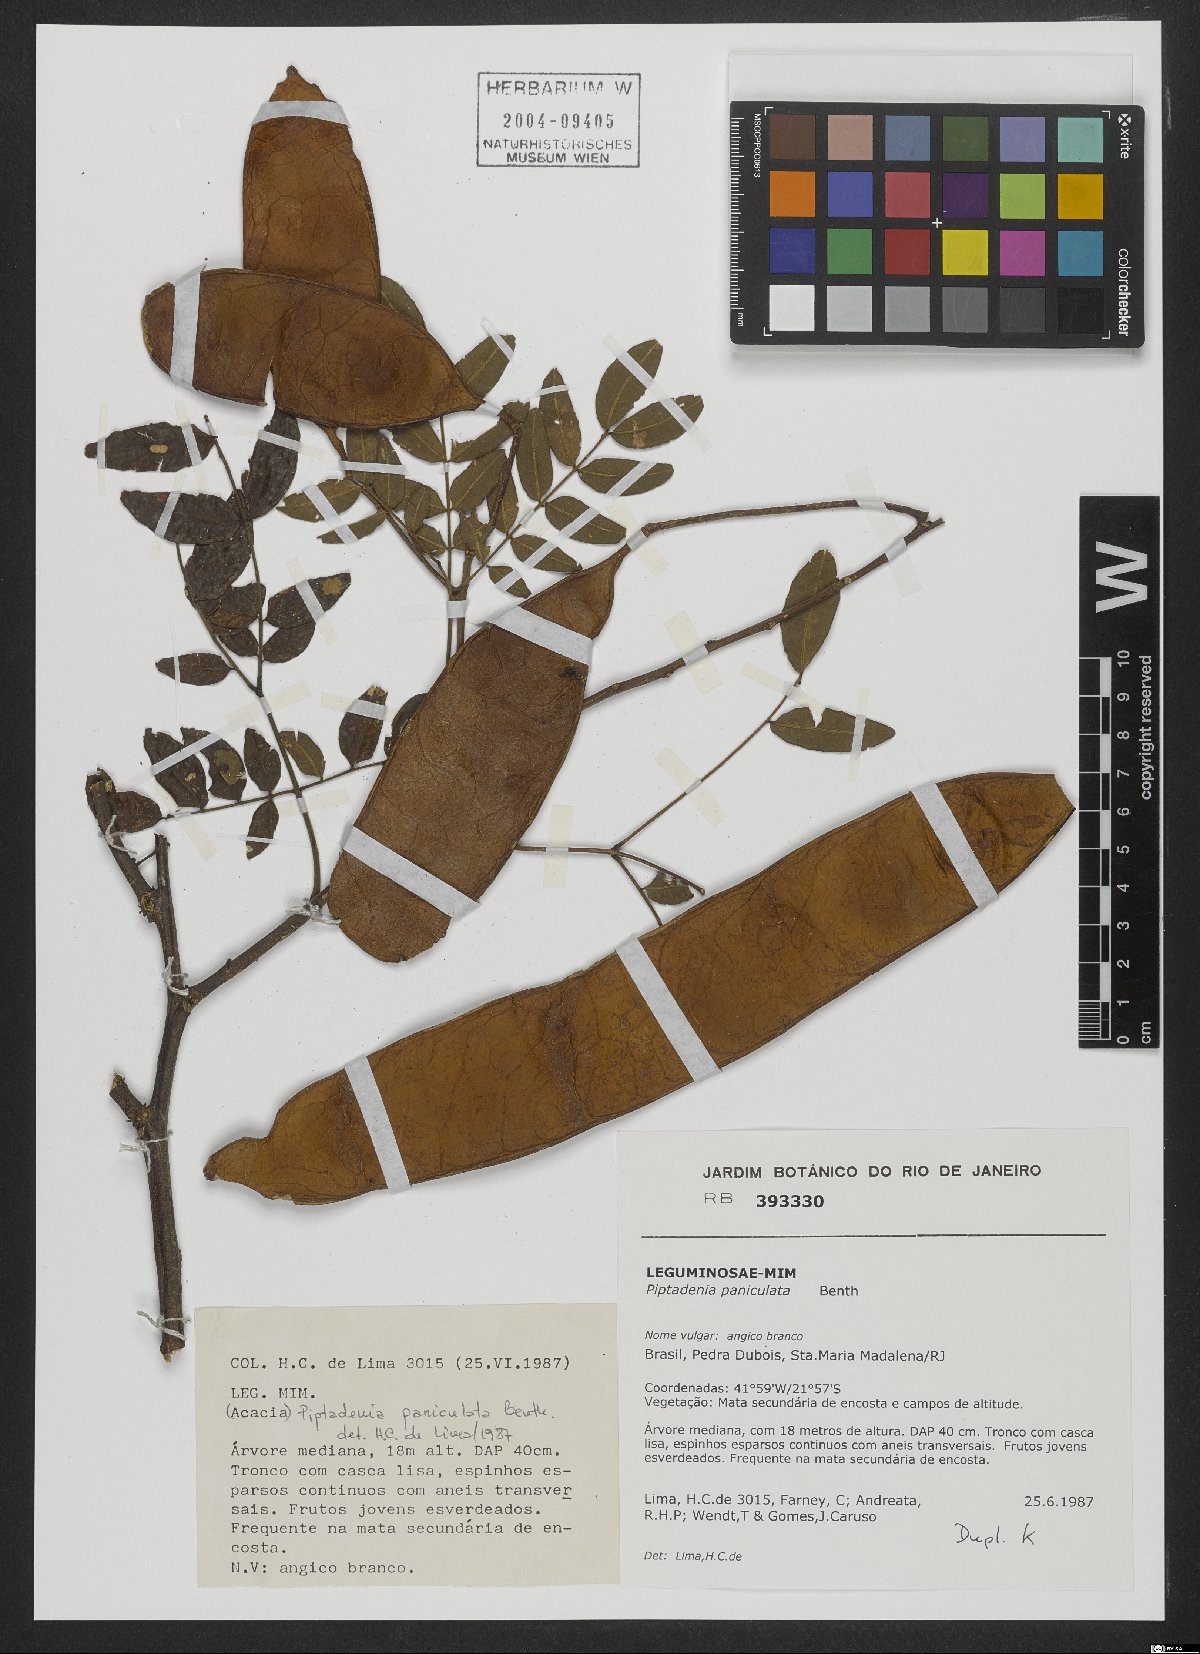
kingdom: Plantae
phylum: Tracheophyta
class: Magnoliopsida
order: Fabales
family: Fabaceae
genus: Piptadenia
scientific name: Piptadenia paniculata
